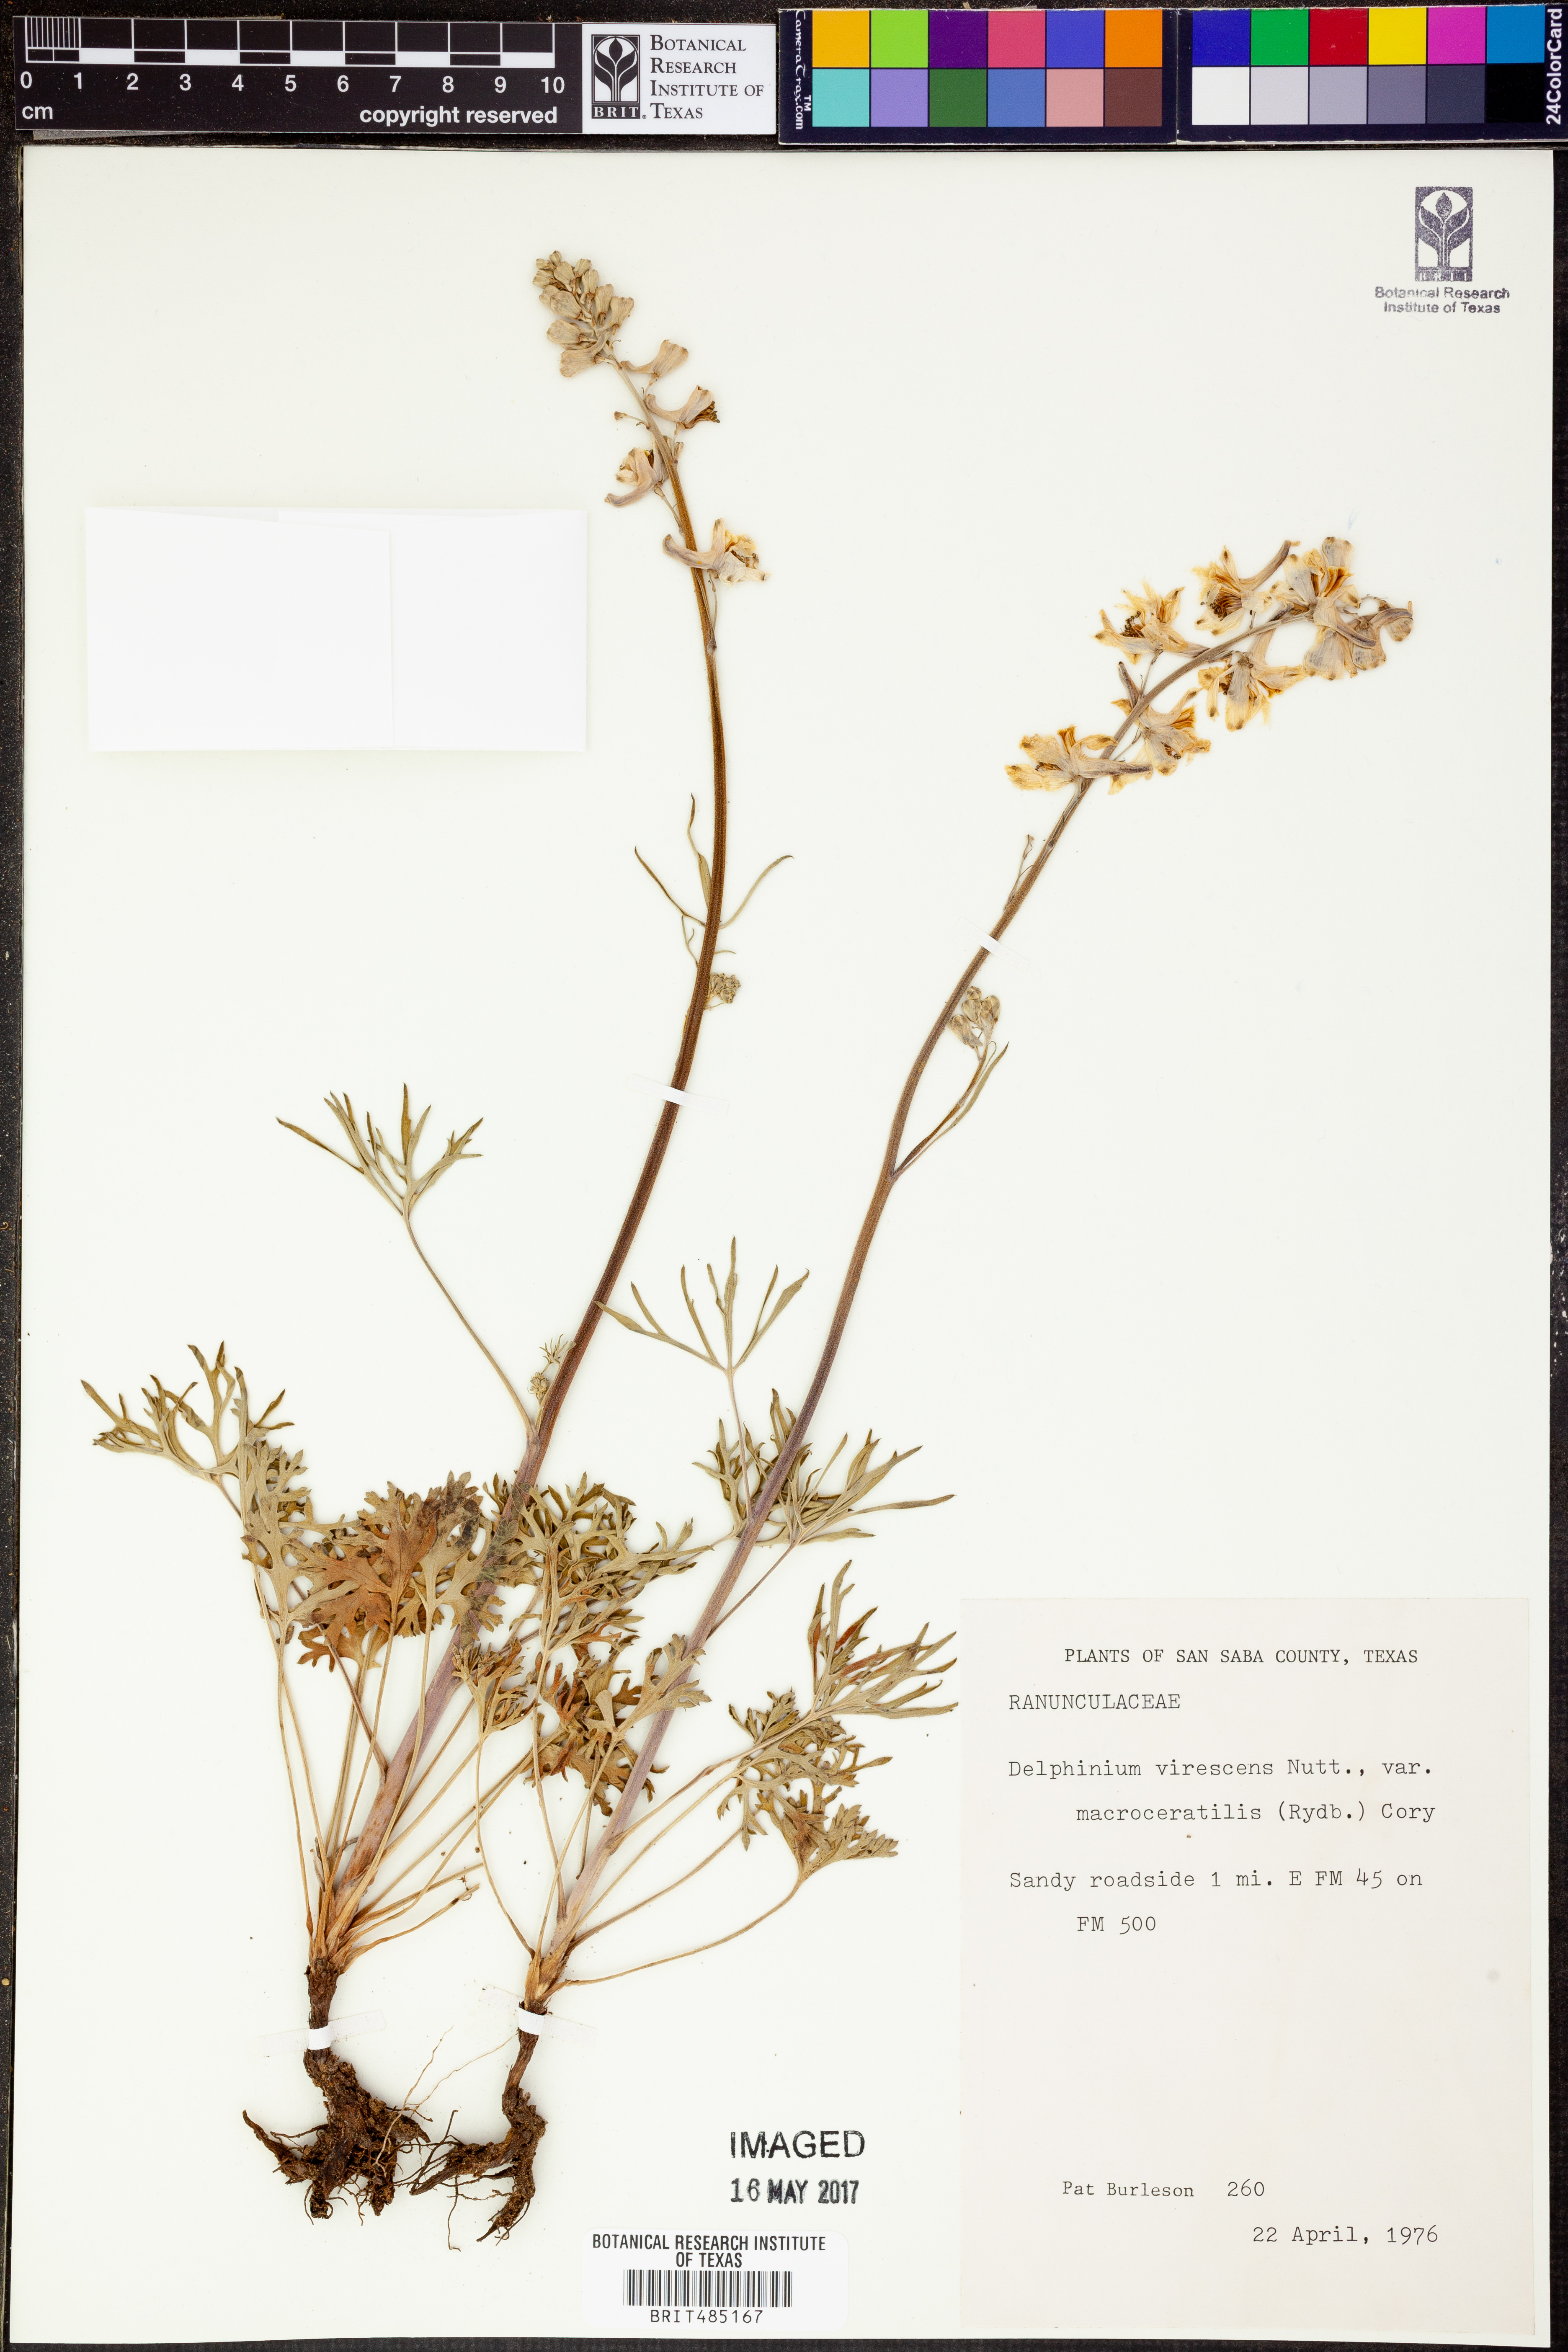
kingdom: Plantae
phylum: Tracheophyta
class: Magnoliopsida
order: Ranunculales
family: Ranunculaceae
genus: Delphinium
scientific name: Delphinium carolinianum
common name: Carolina larkspur
